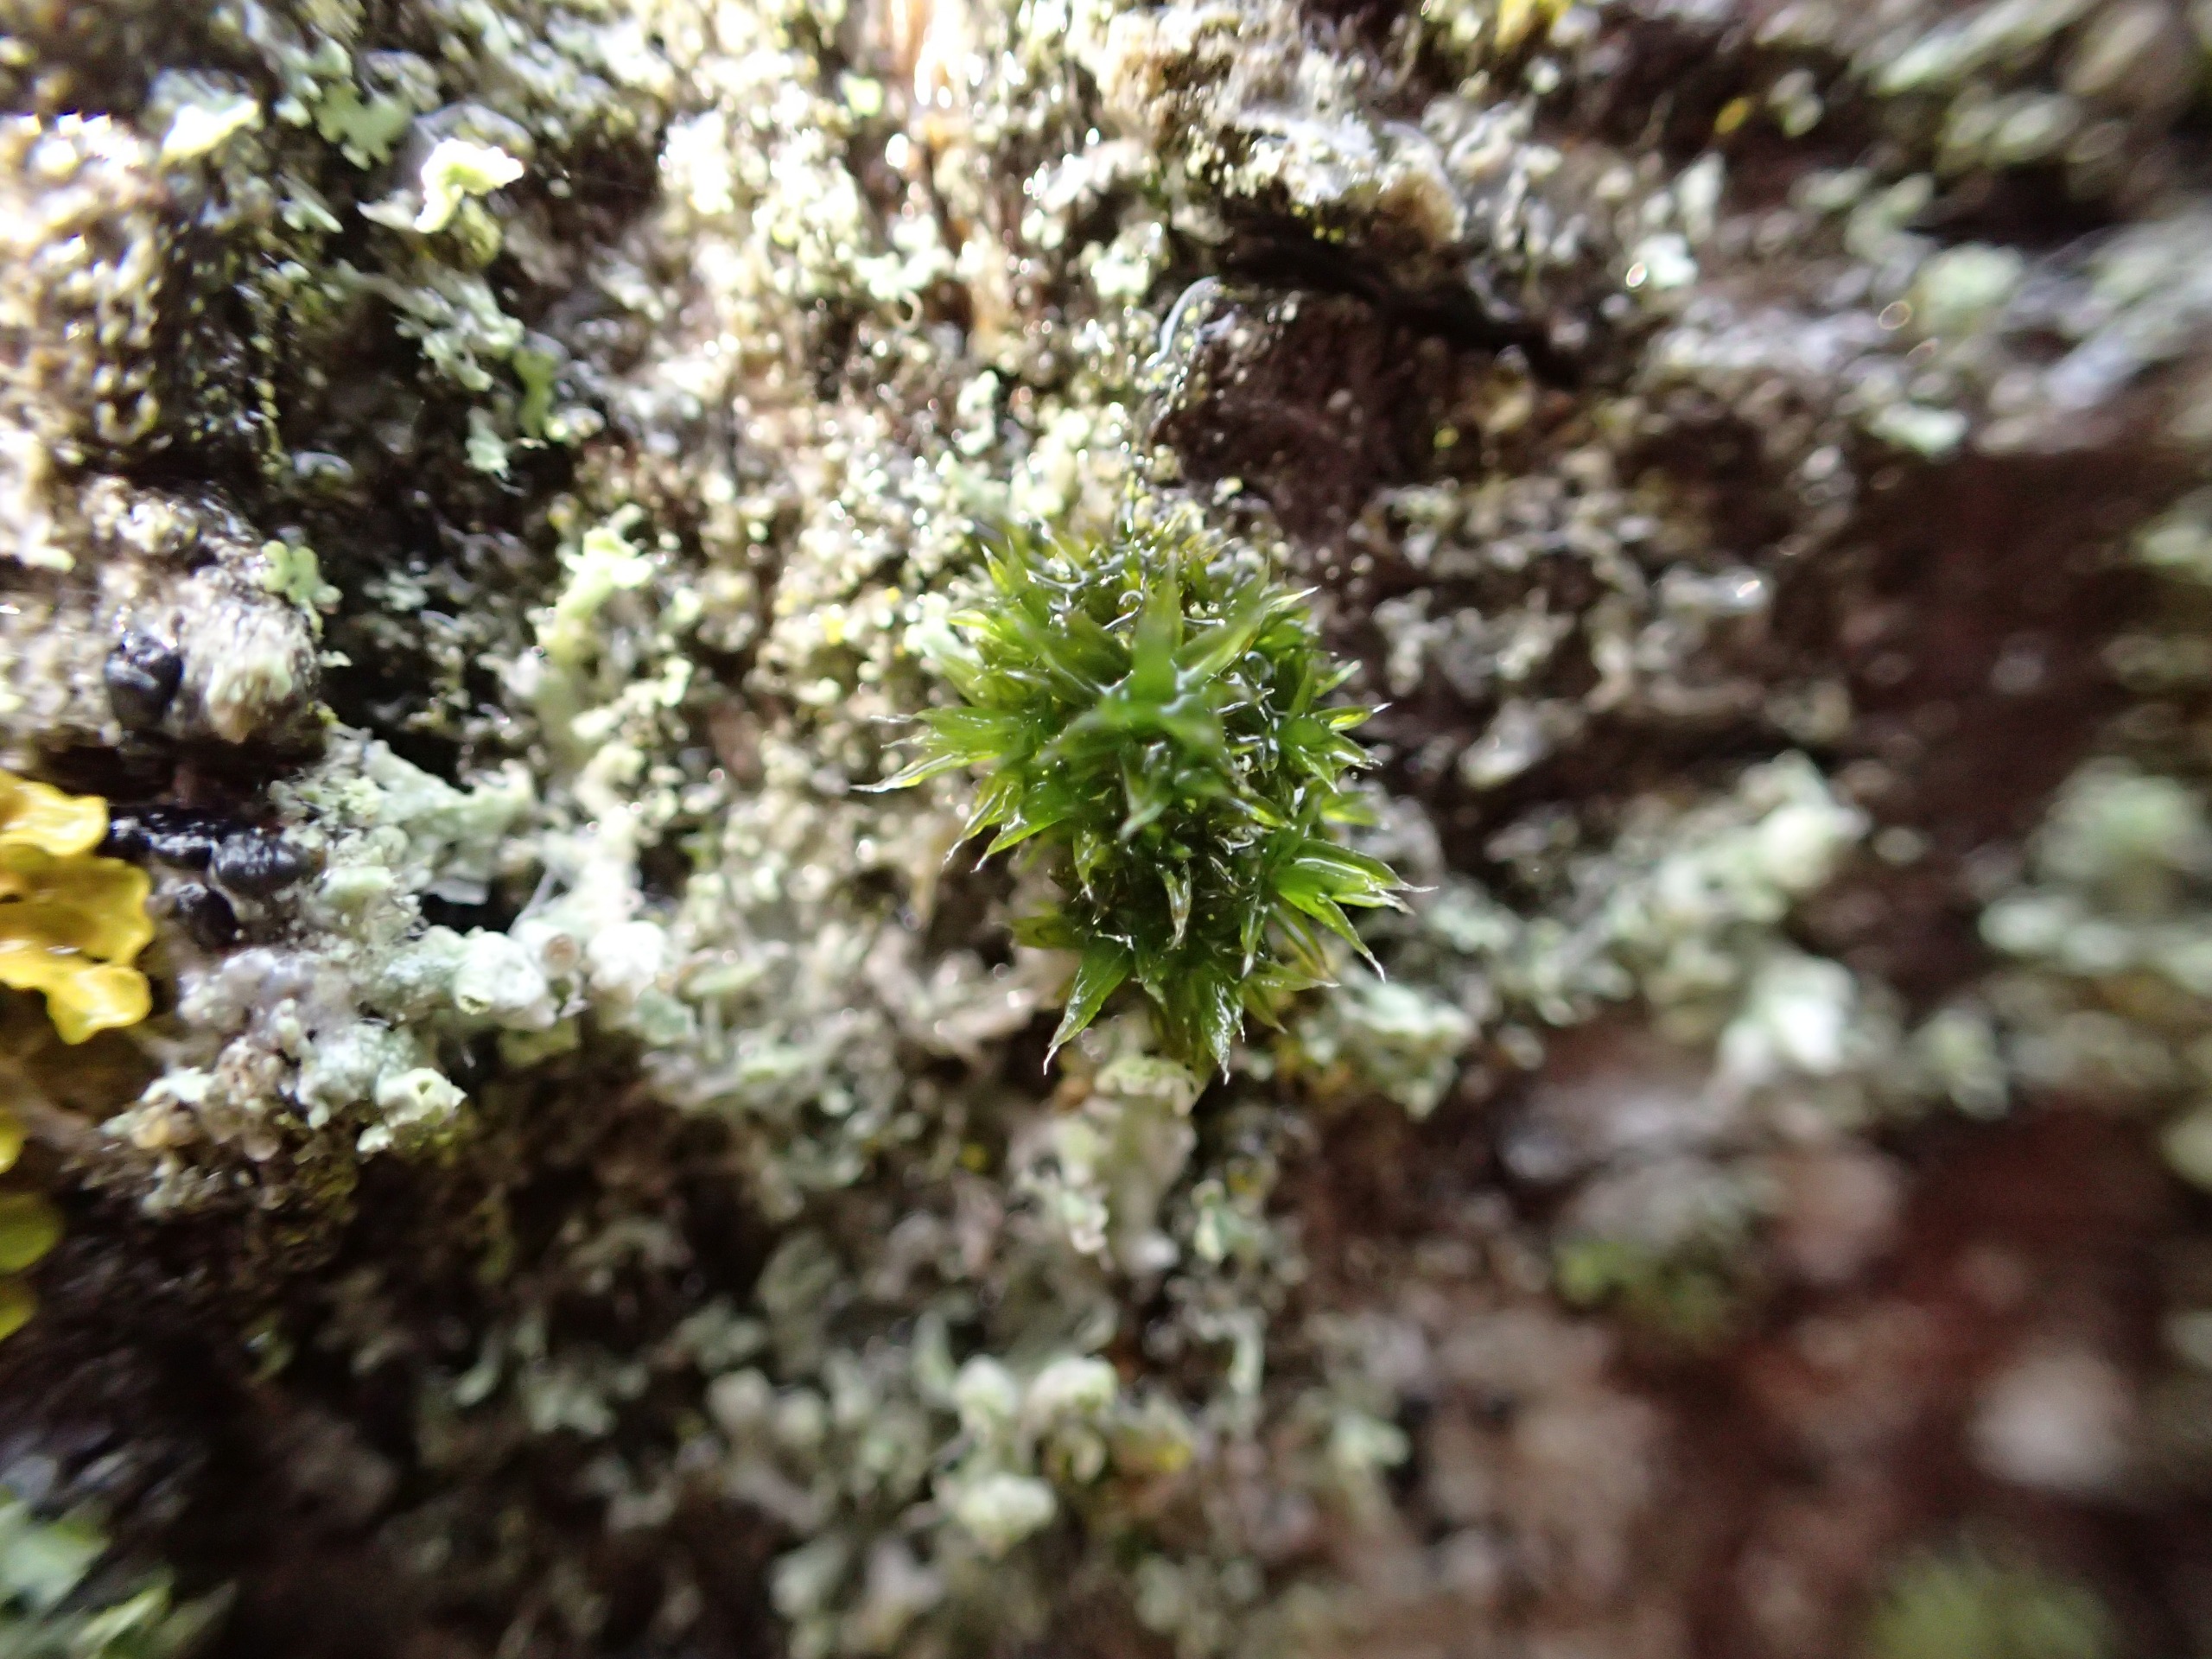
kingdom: Plantae
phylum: Bryophyta
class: Bryopsida
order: Orthotrichales
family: Orthotrichaceae
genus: Orthotrichum
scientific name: Orthotrichum diaphanum
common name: Hårspidset furehætte
